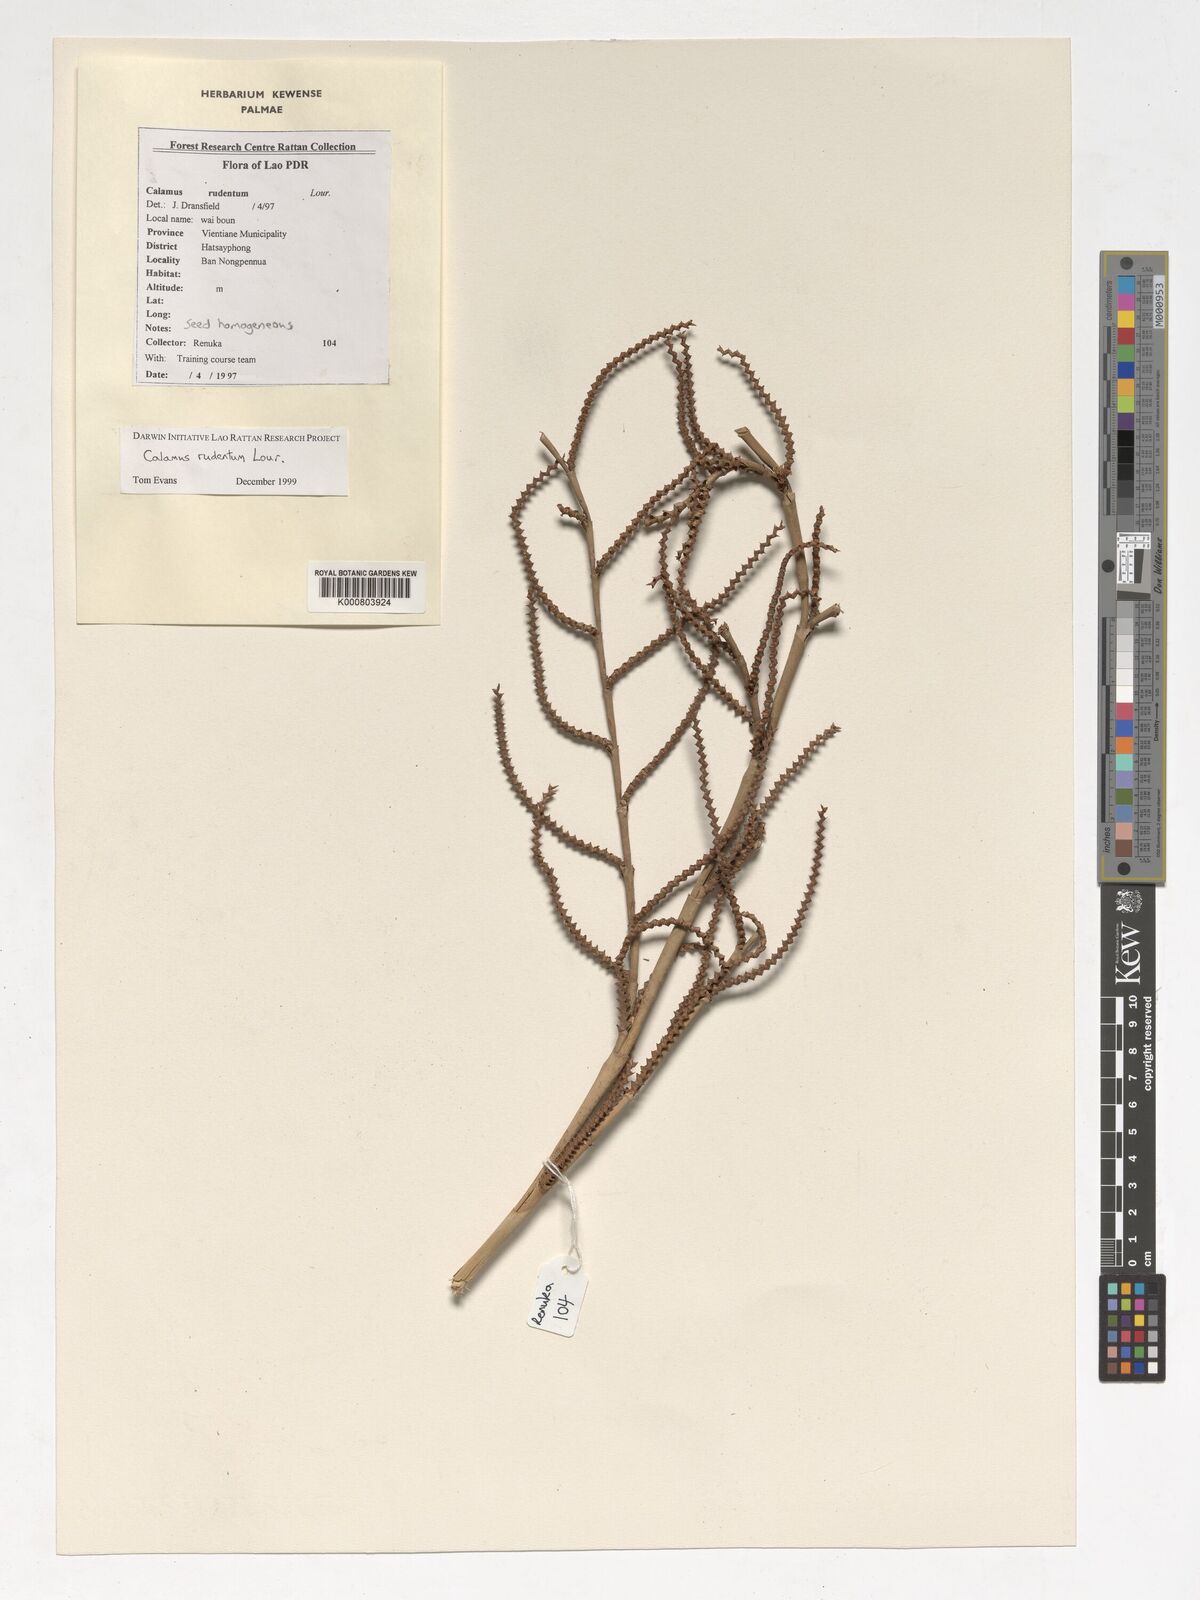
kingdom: Plantae
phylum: Tracheophyta
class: Liliopsida
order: Arecales
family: Arecaceae
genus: Calamus
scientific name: Calamus rudentum
